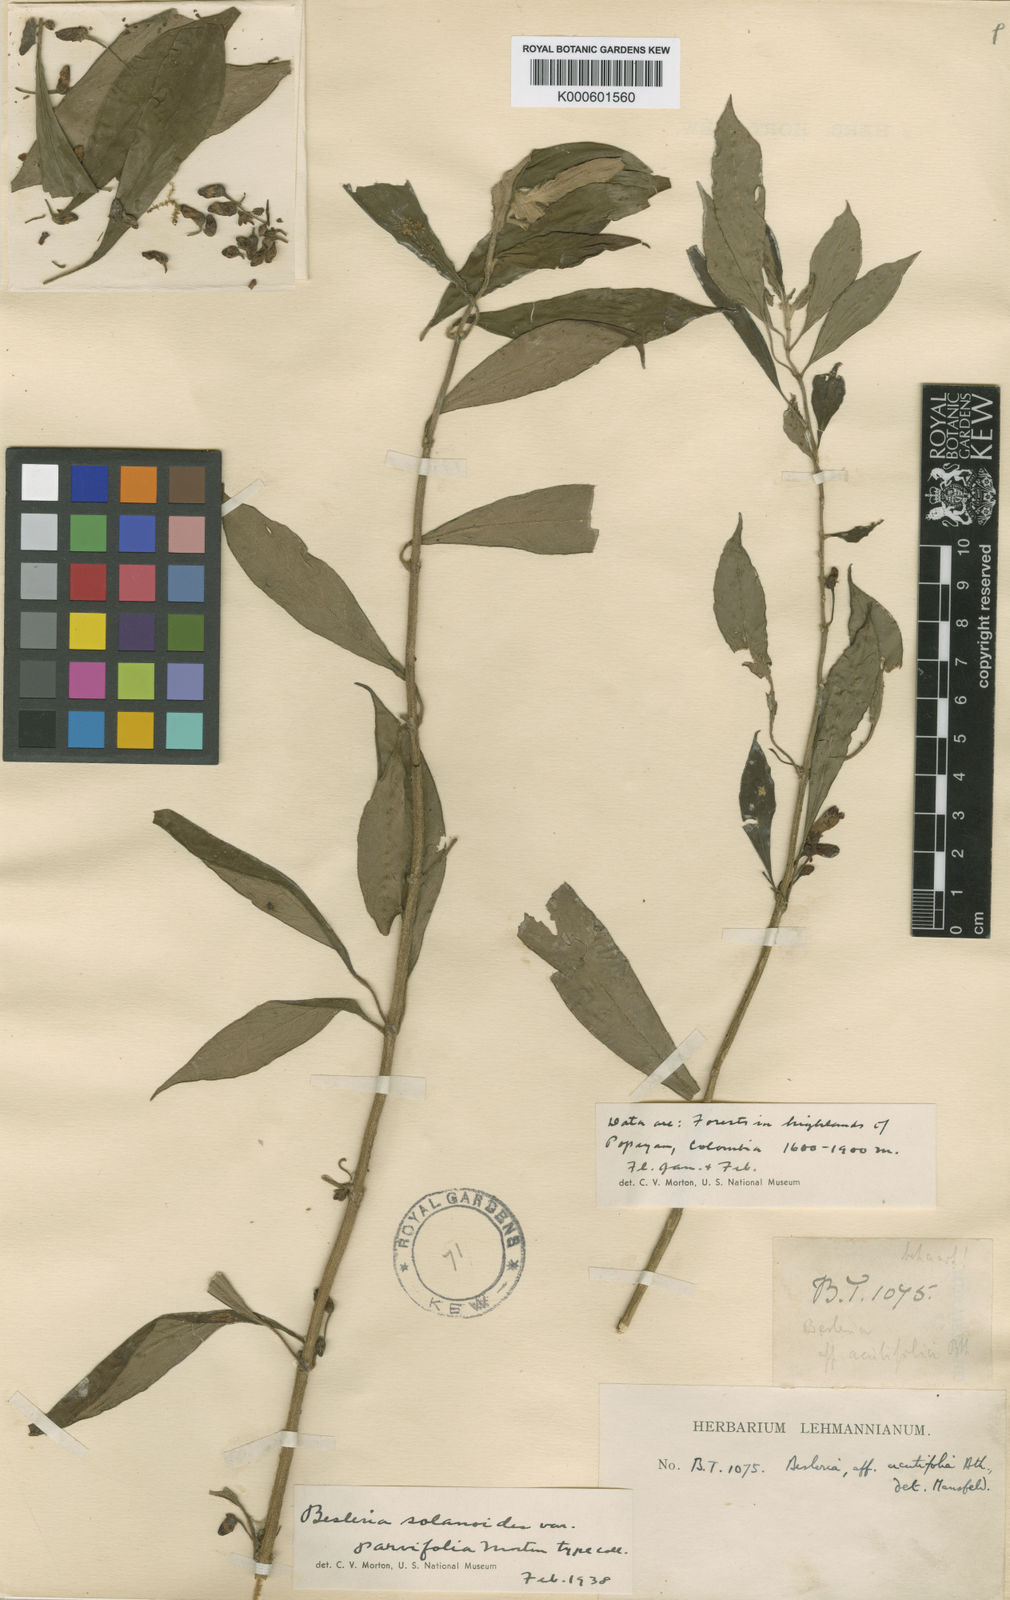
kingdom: Plantae
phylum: Tracheophyta
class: Magnoliopsida
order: Lamiales
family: Gesneriaceae
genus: Besleria
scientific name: Besleria solanoides
